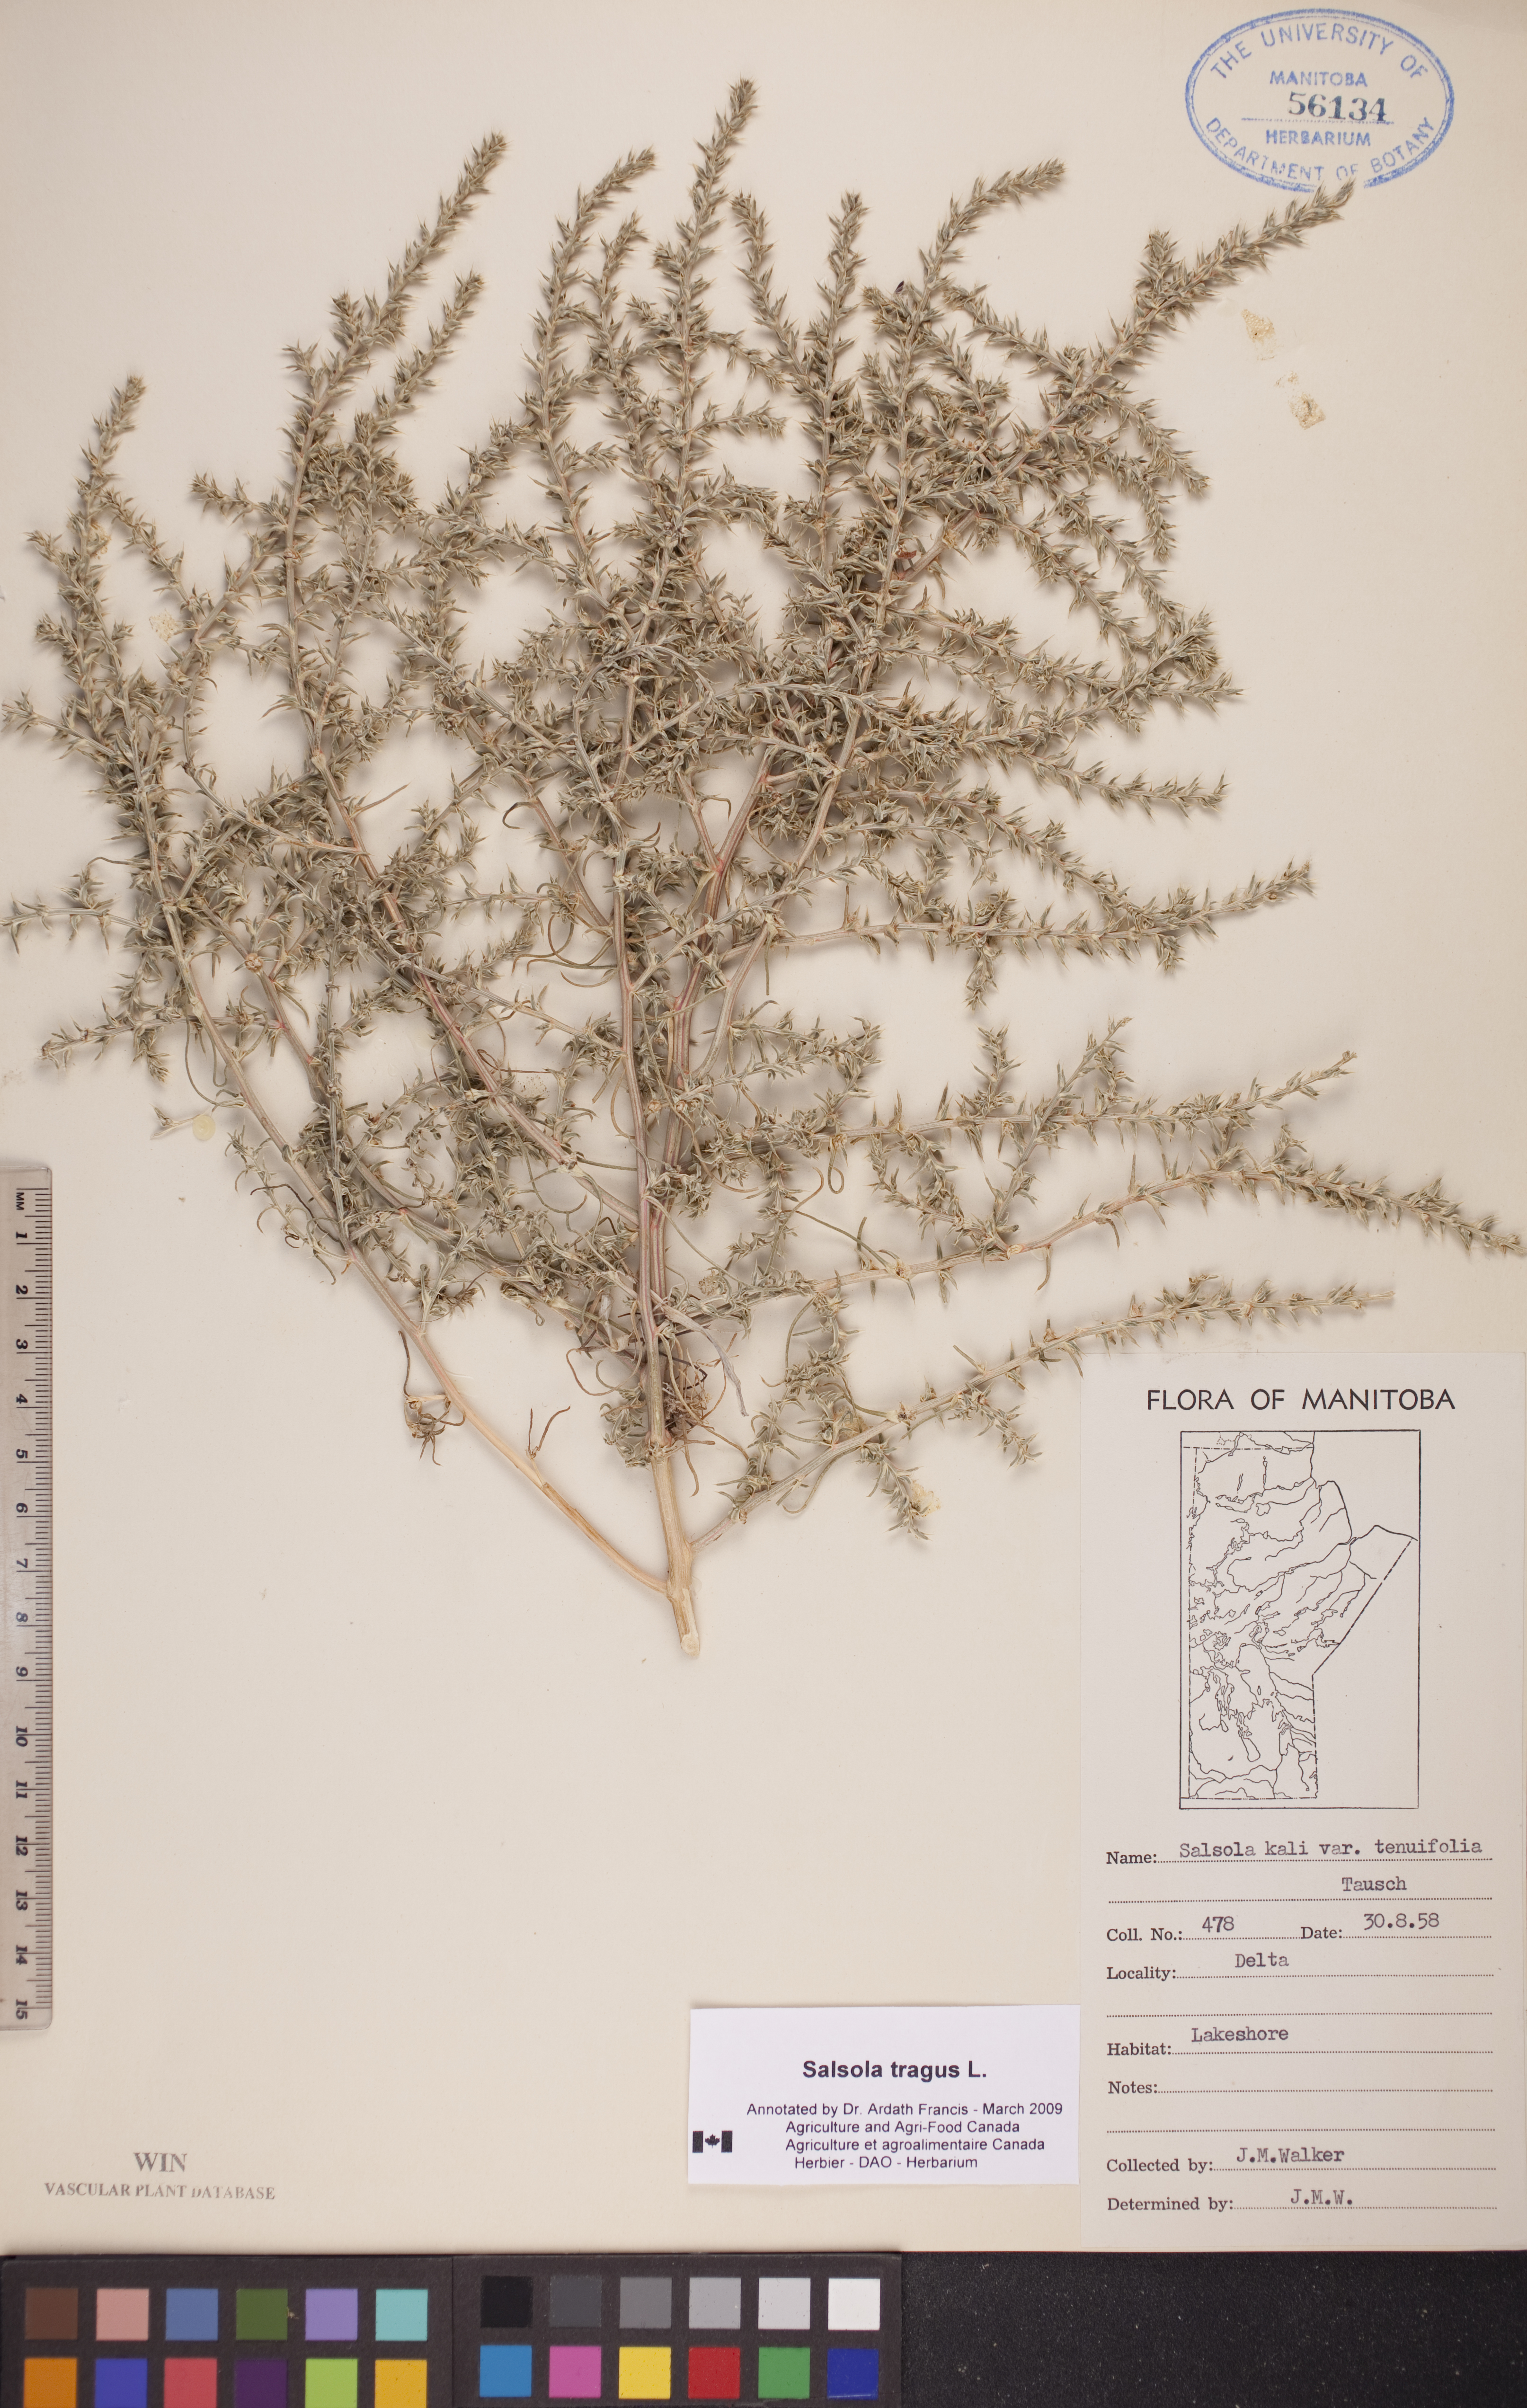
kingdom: Plantae
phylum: Tracheophyta
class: Magnoliopsida
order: Caryophyllales
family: Amaranthaceae
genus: Salsola
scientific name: Salsola tragus
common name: Prickly russian thistle
